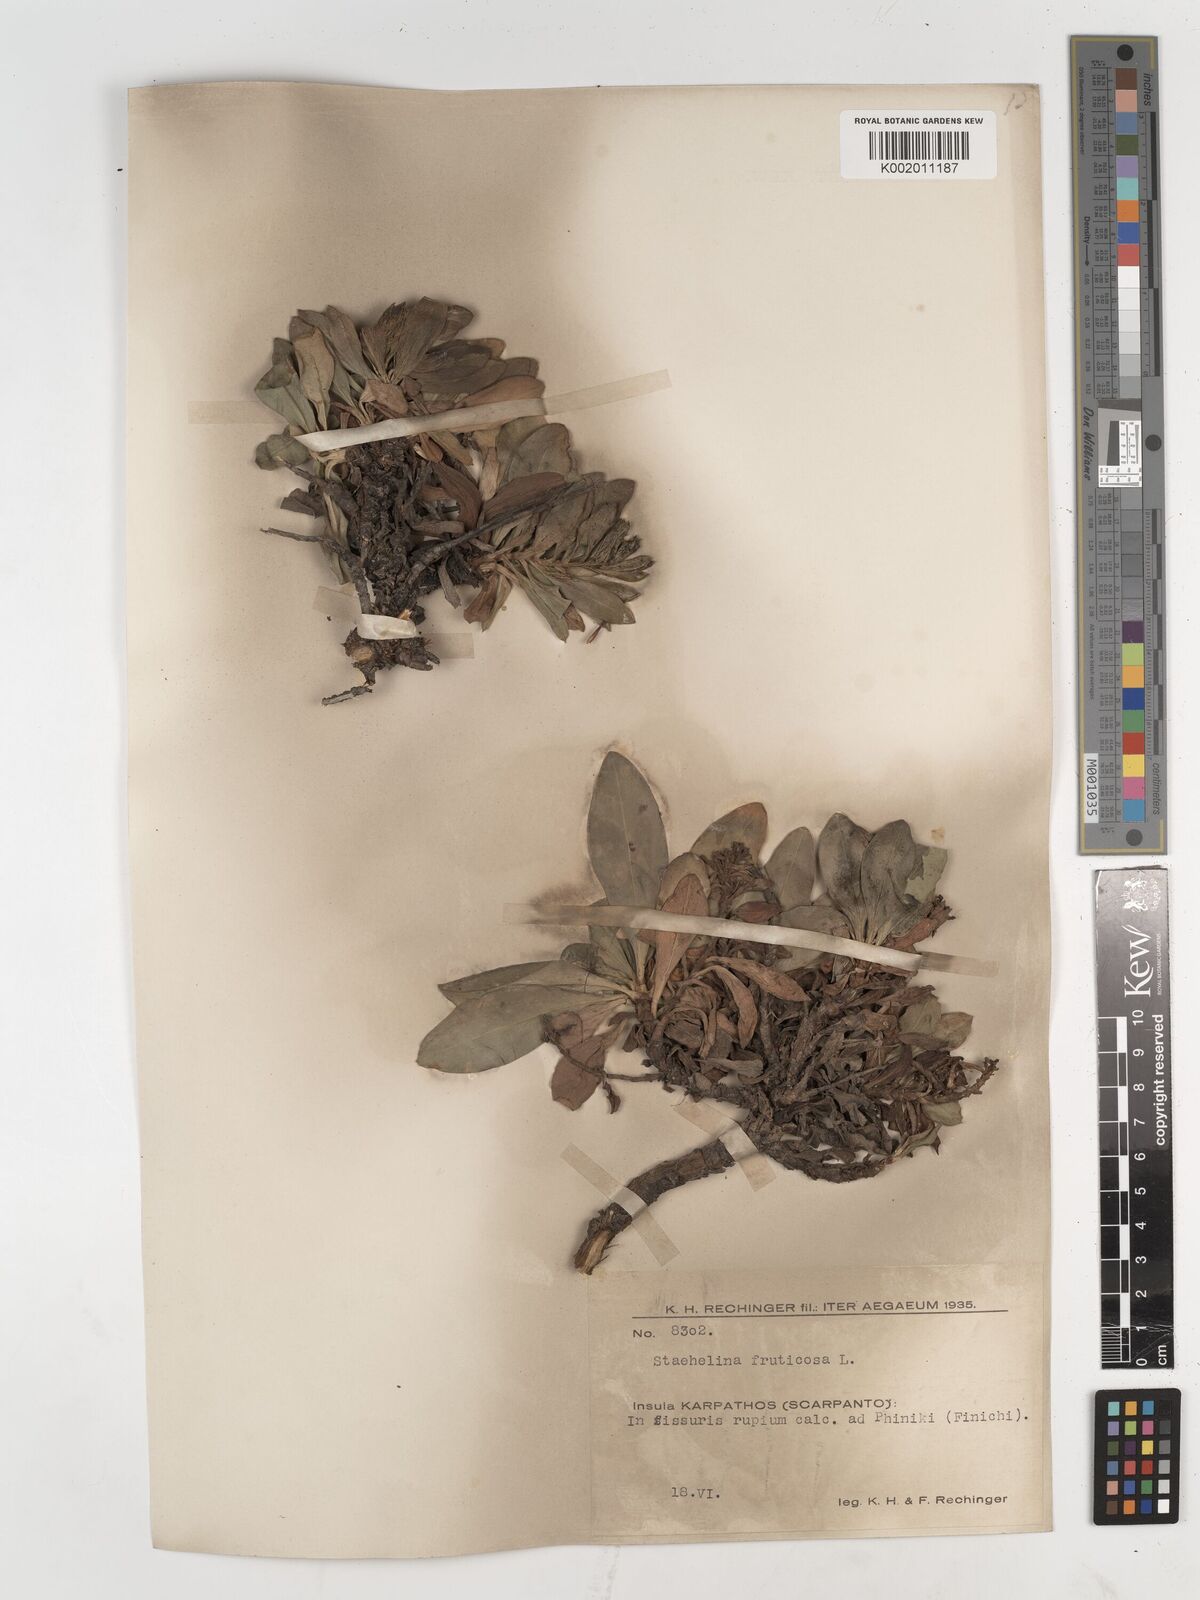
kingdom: Plantae
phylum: Tracheophyta
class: Magnoliopsida
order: Asterales
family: Asteraceae
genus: Hirtellina
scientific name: Hirtellina fruticosa
